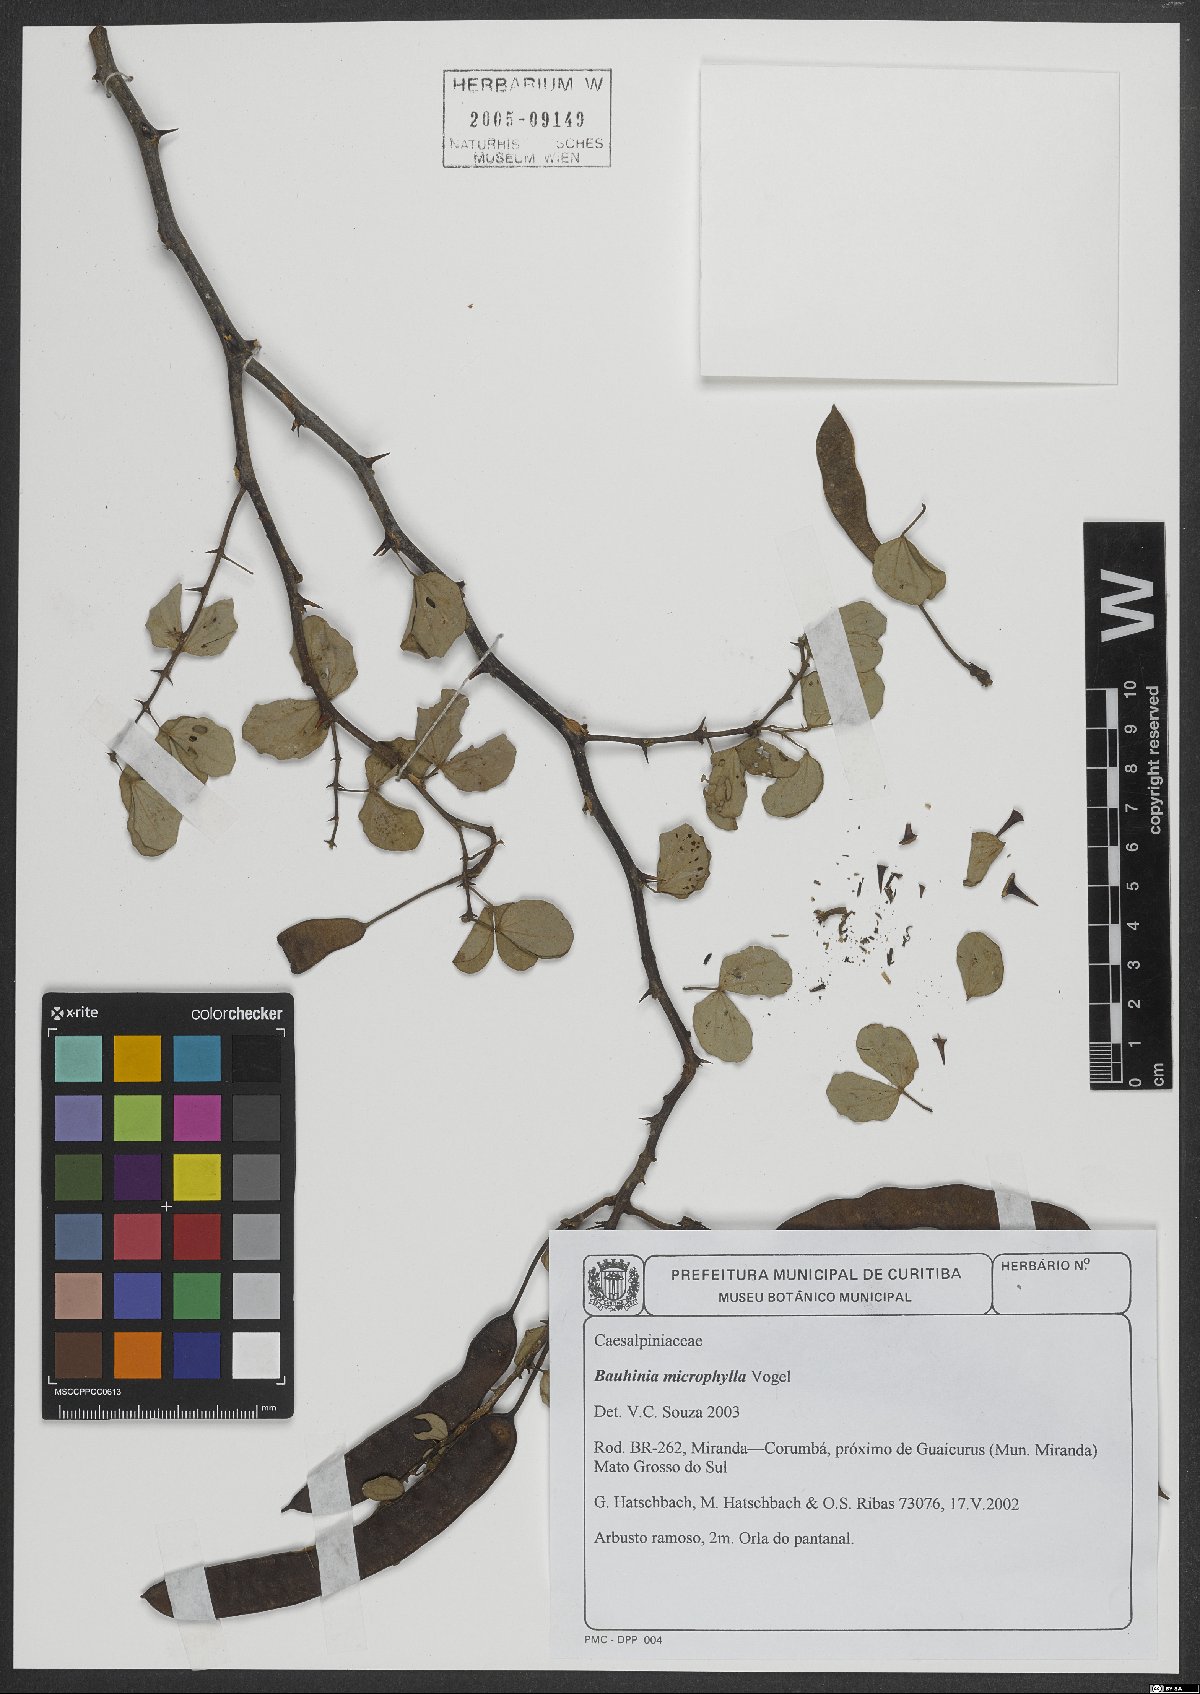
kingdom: Plantae
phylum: Tracheophyta
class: Magnoliopsida
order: Fabales
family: Fabaceae
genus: Bauhinia
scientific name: Bauhinia bauhinioides
